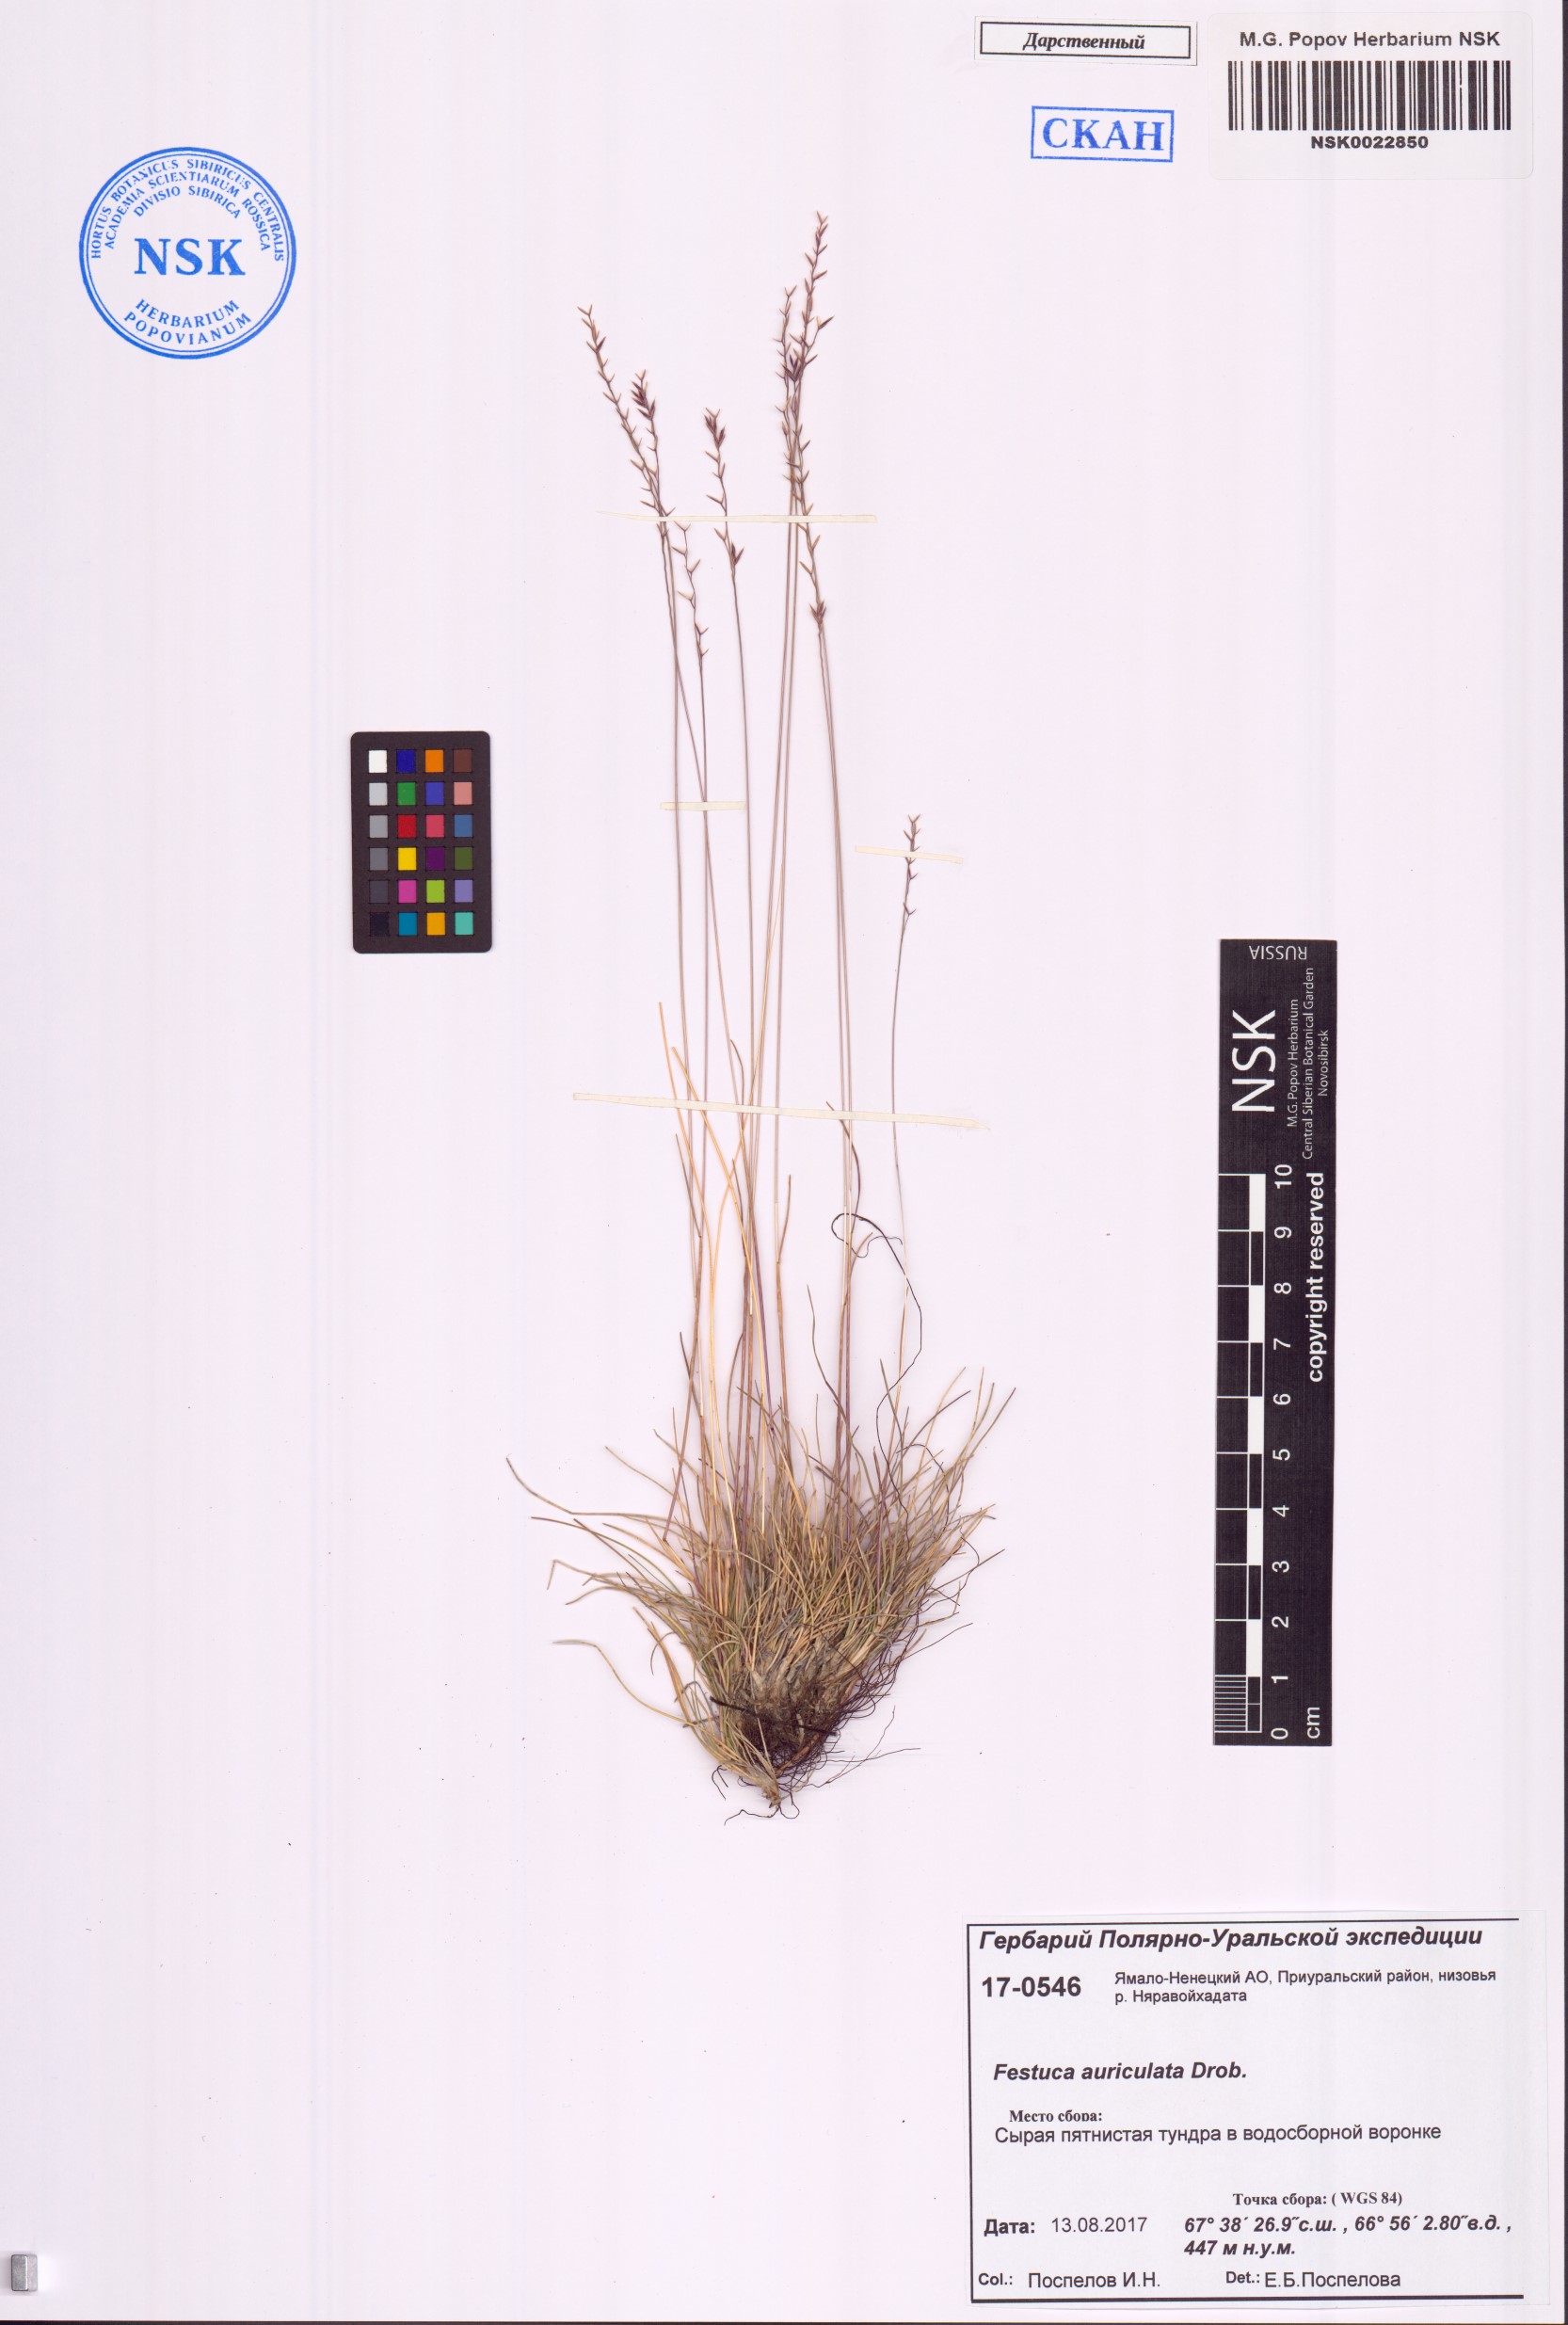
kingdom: Plantae
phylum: Tracheophyta
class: Liliopsida
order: Poales
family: Poaceae
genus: Festuca
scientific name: Festuca auriculata
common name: Eared fescue
